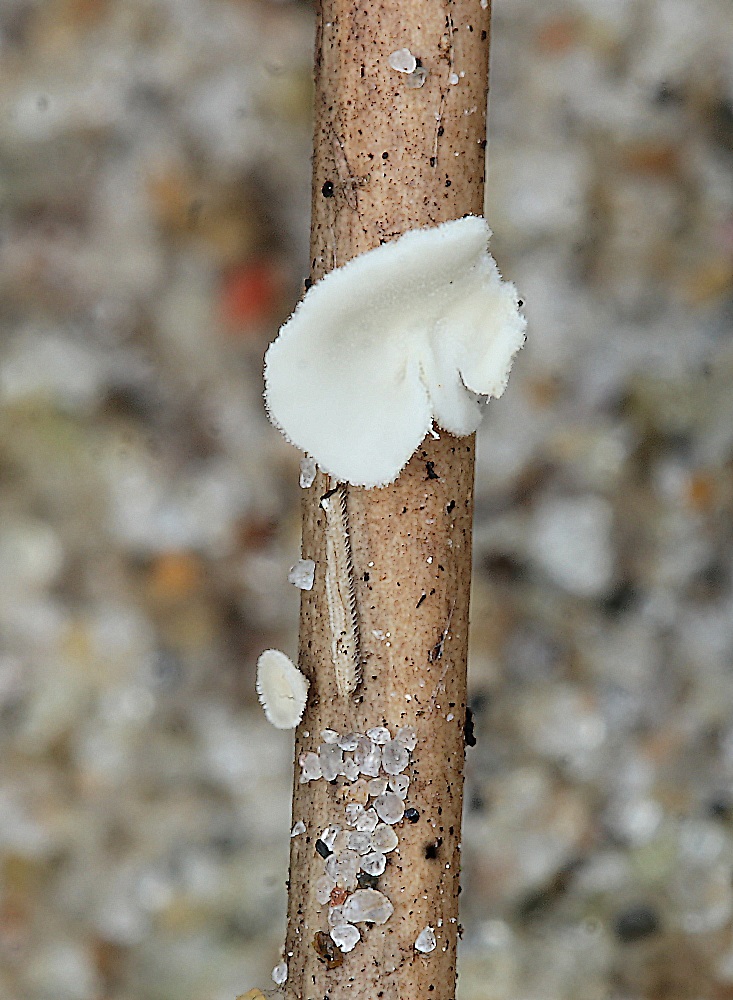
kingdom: Fungi
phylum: Basidiomycota
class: Agaricomycetes
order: Agaricales
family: Tricholomataceae
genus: Cellypha
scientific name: Cellypha goldbachii
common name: dråbeskål
